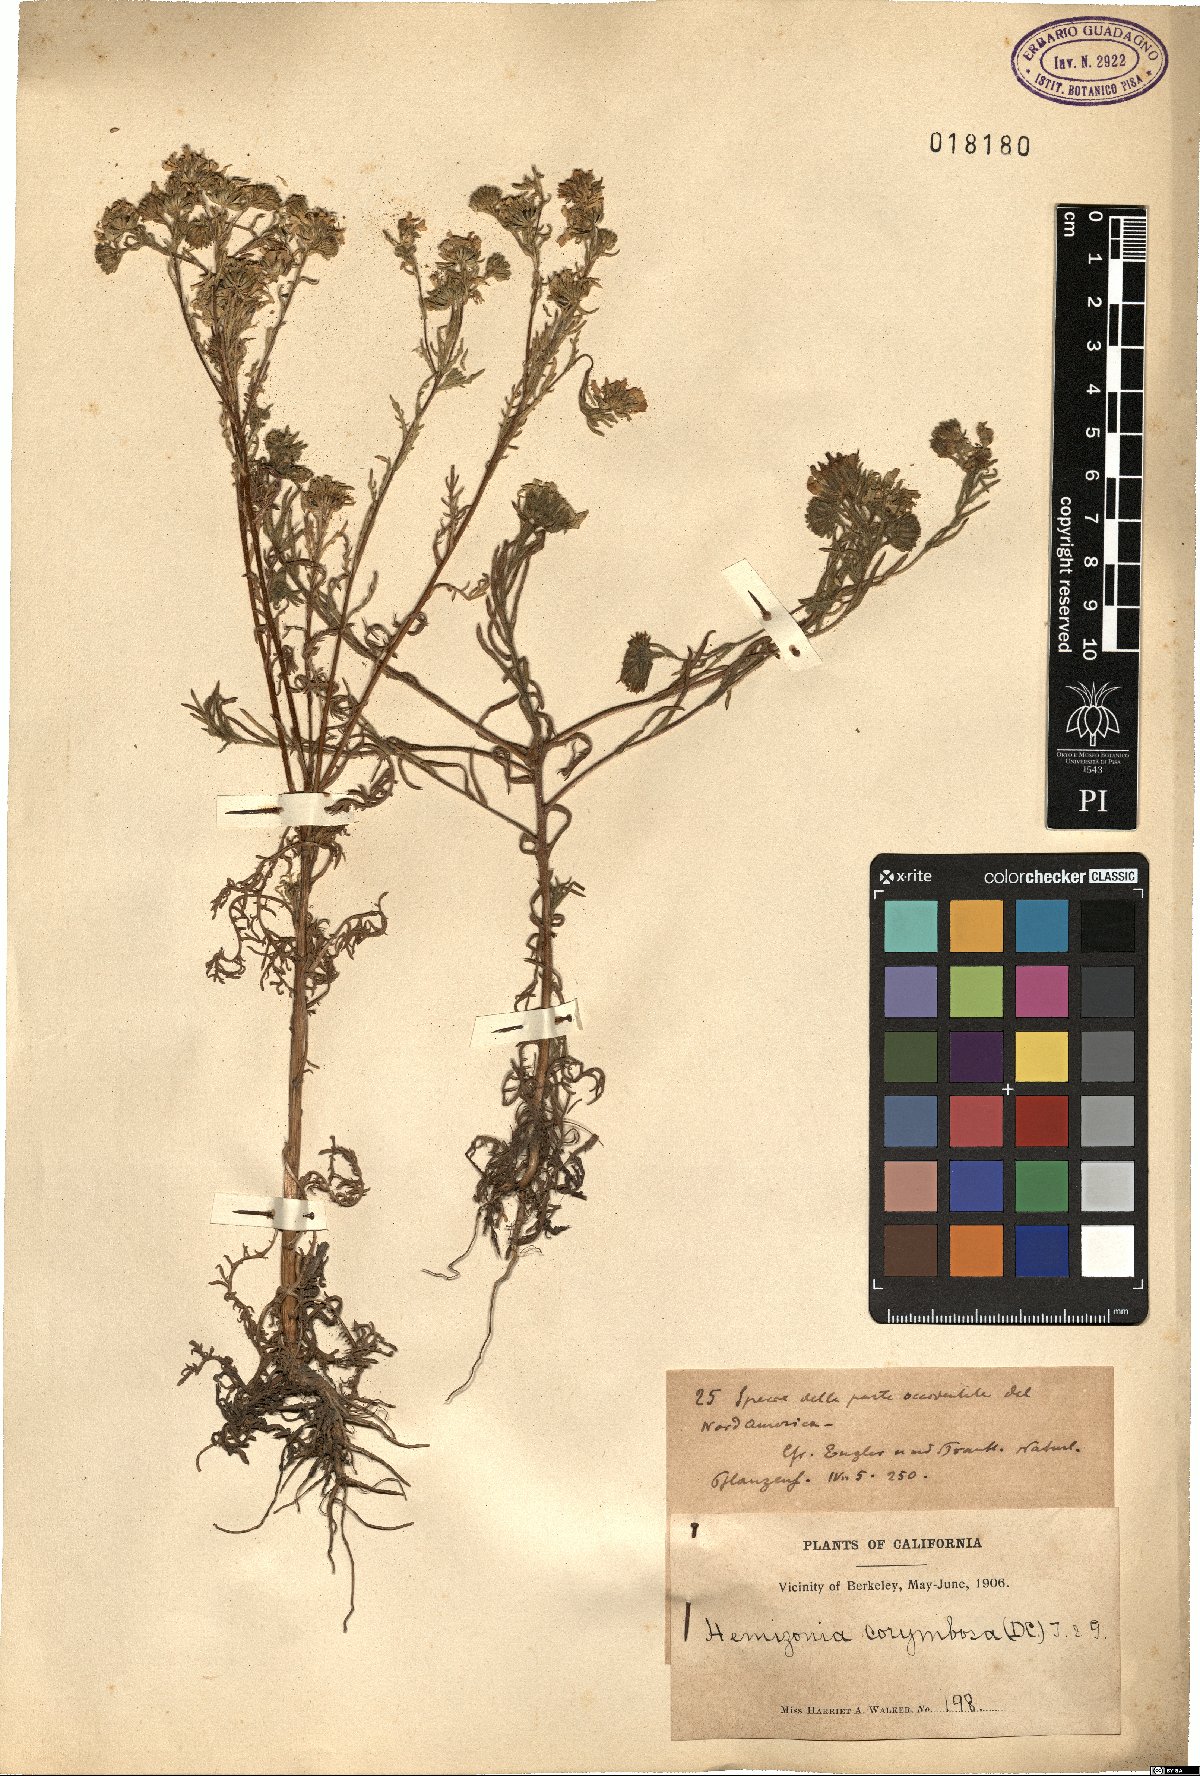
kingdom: Plantae
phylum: Tracheophyta
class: Magnoliopsida
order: Asterales
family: Asteraceae
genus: Deinandra
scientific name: Deinandra corymbosa
